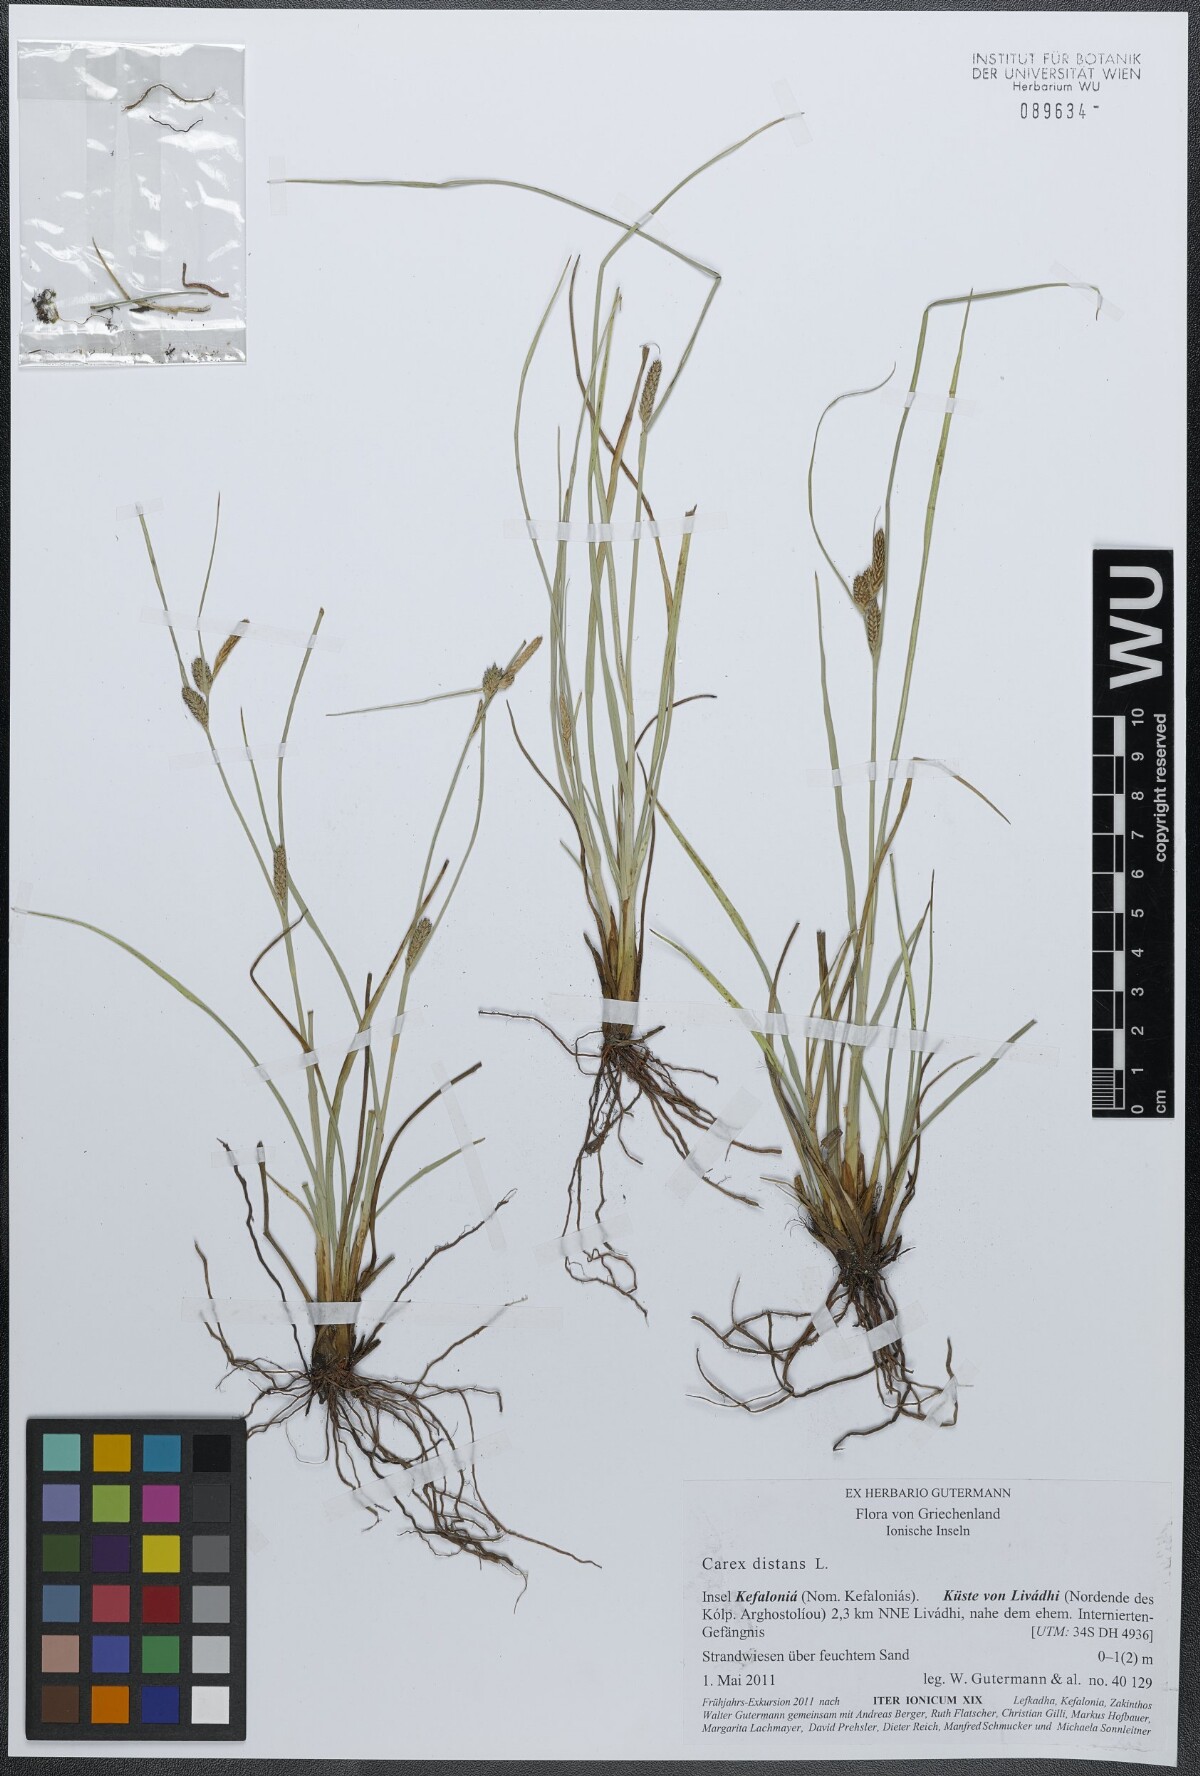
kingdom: Plantae
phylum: Tracheophyta
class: Liliopsida
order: Poales
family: Cyperaceae
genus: Carex
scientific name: Carex distans
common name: Distant sedge
